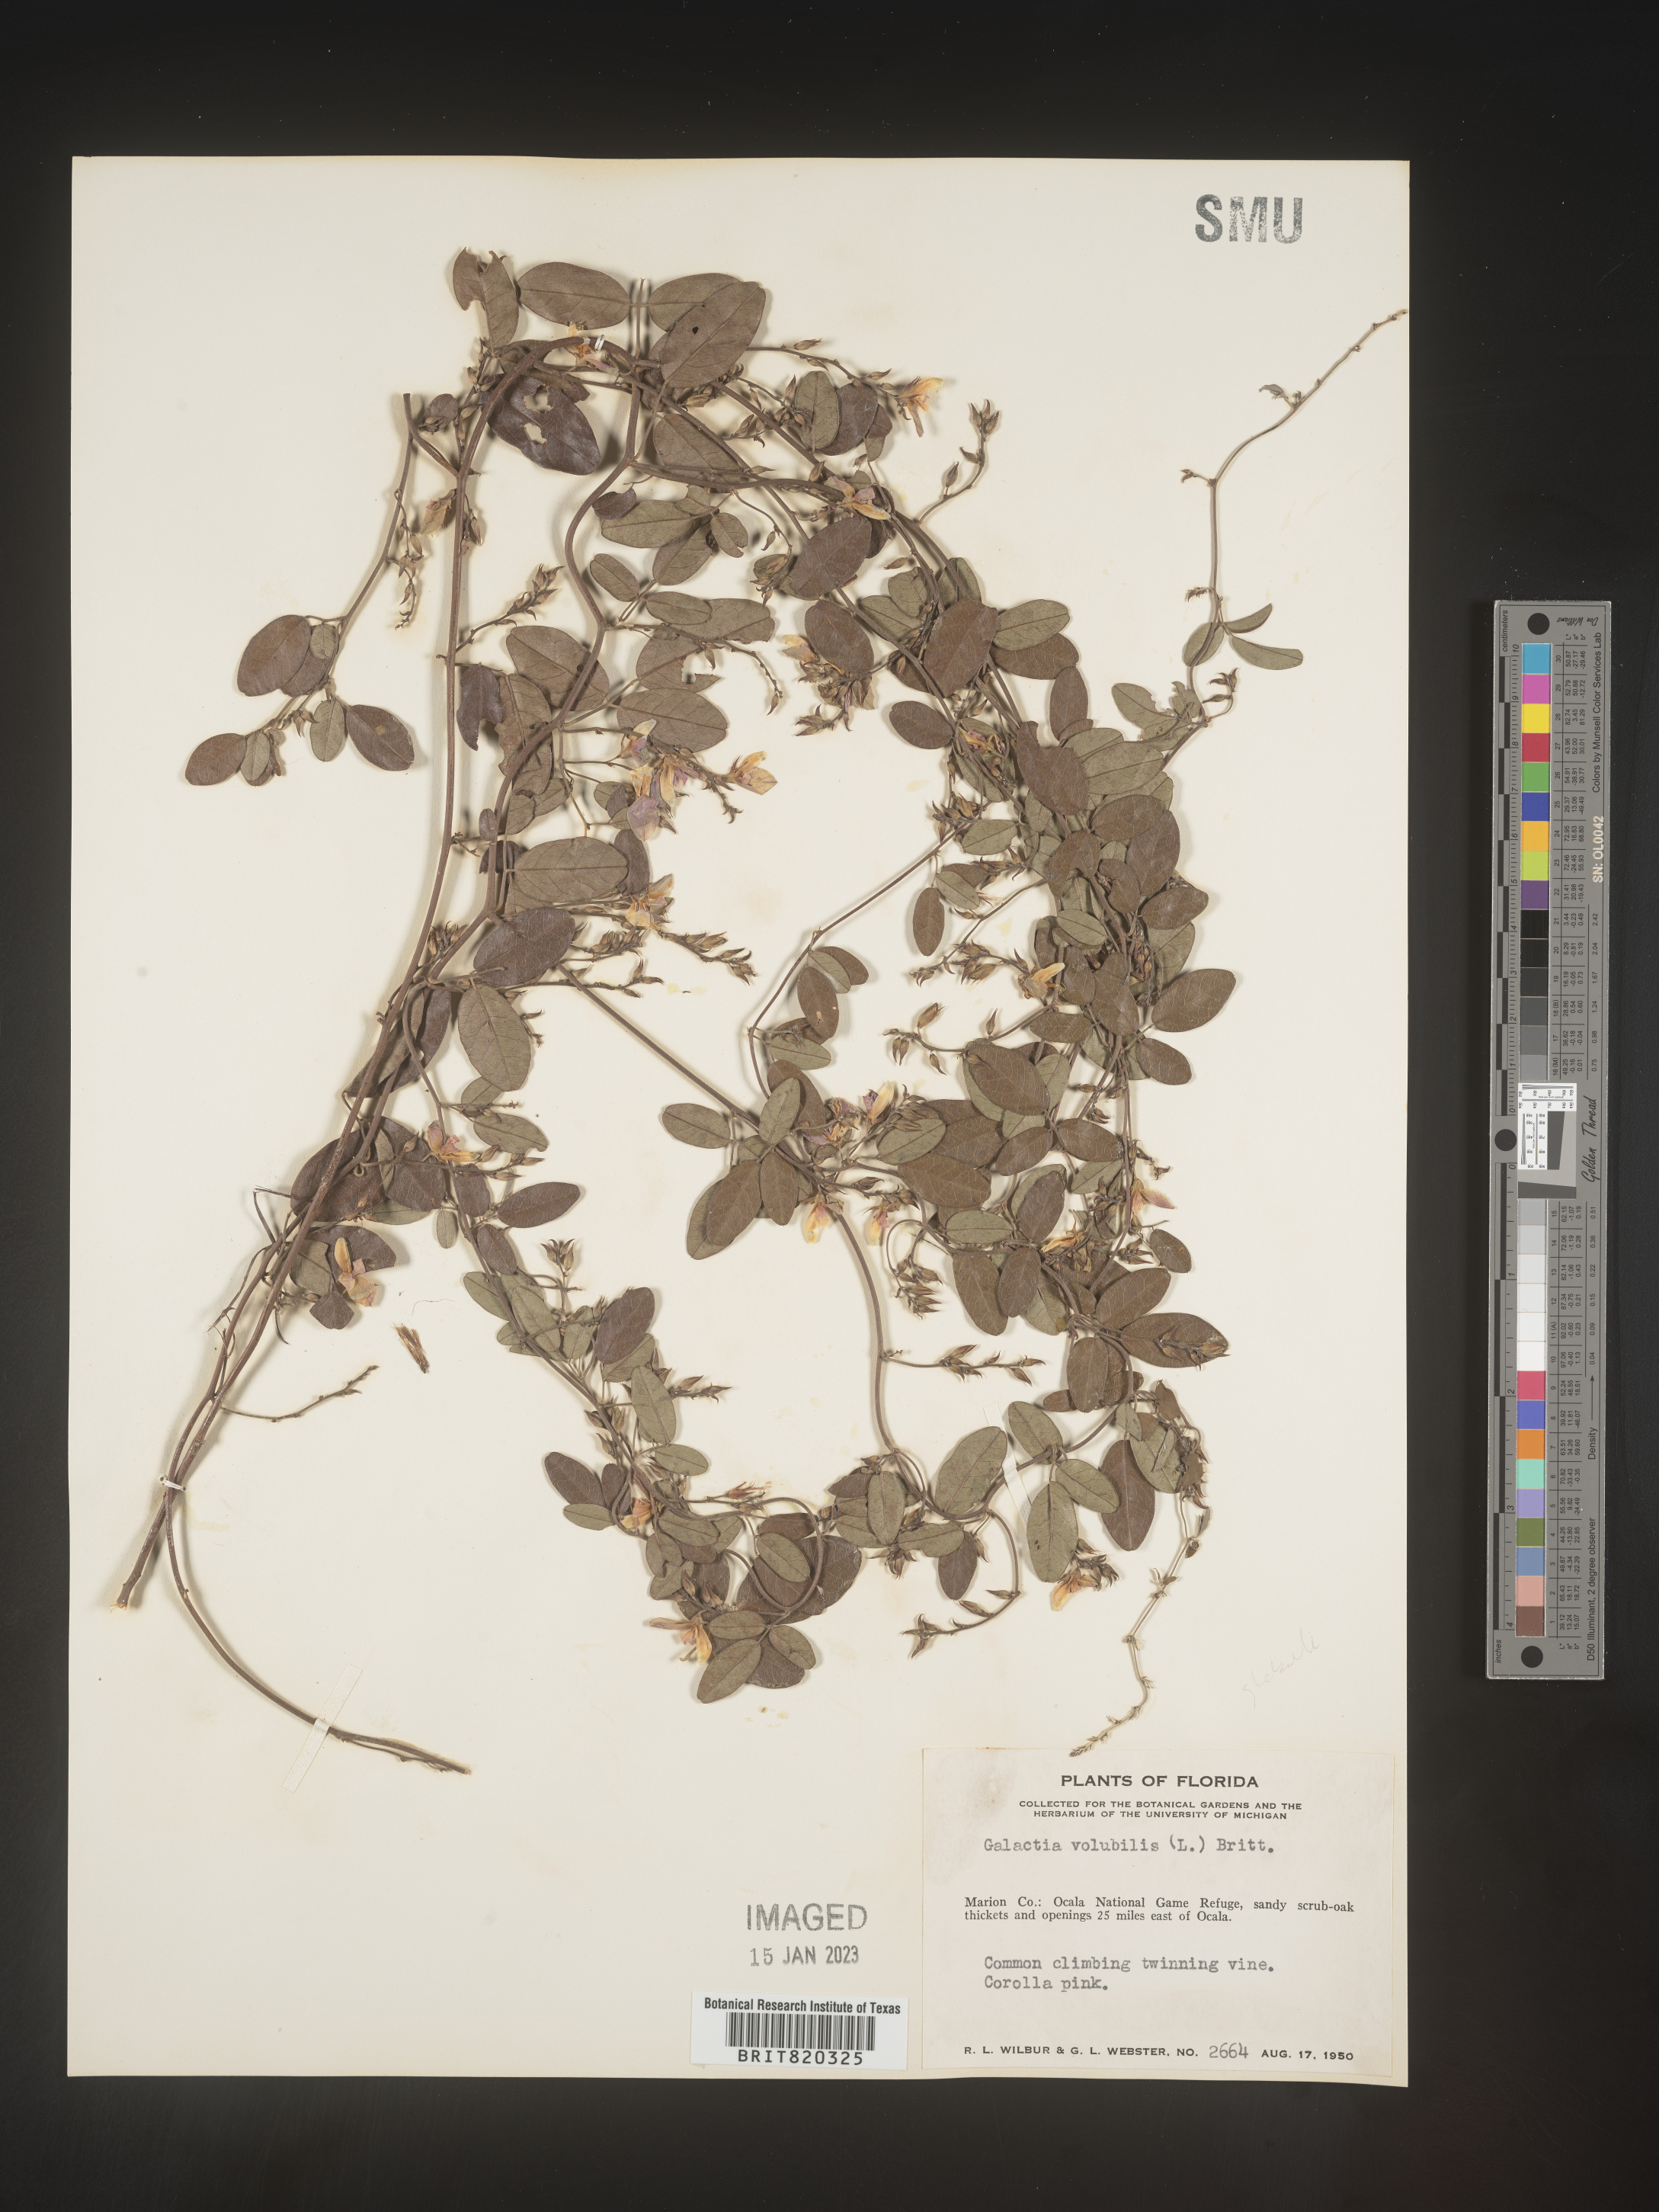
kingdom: Plantae
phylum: Tracheophyta
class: Magnoliopsida
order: Fabales
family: Fabaceae
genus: Galactia
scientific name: Galactia regularis
